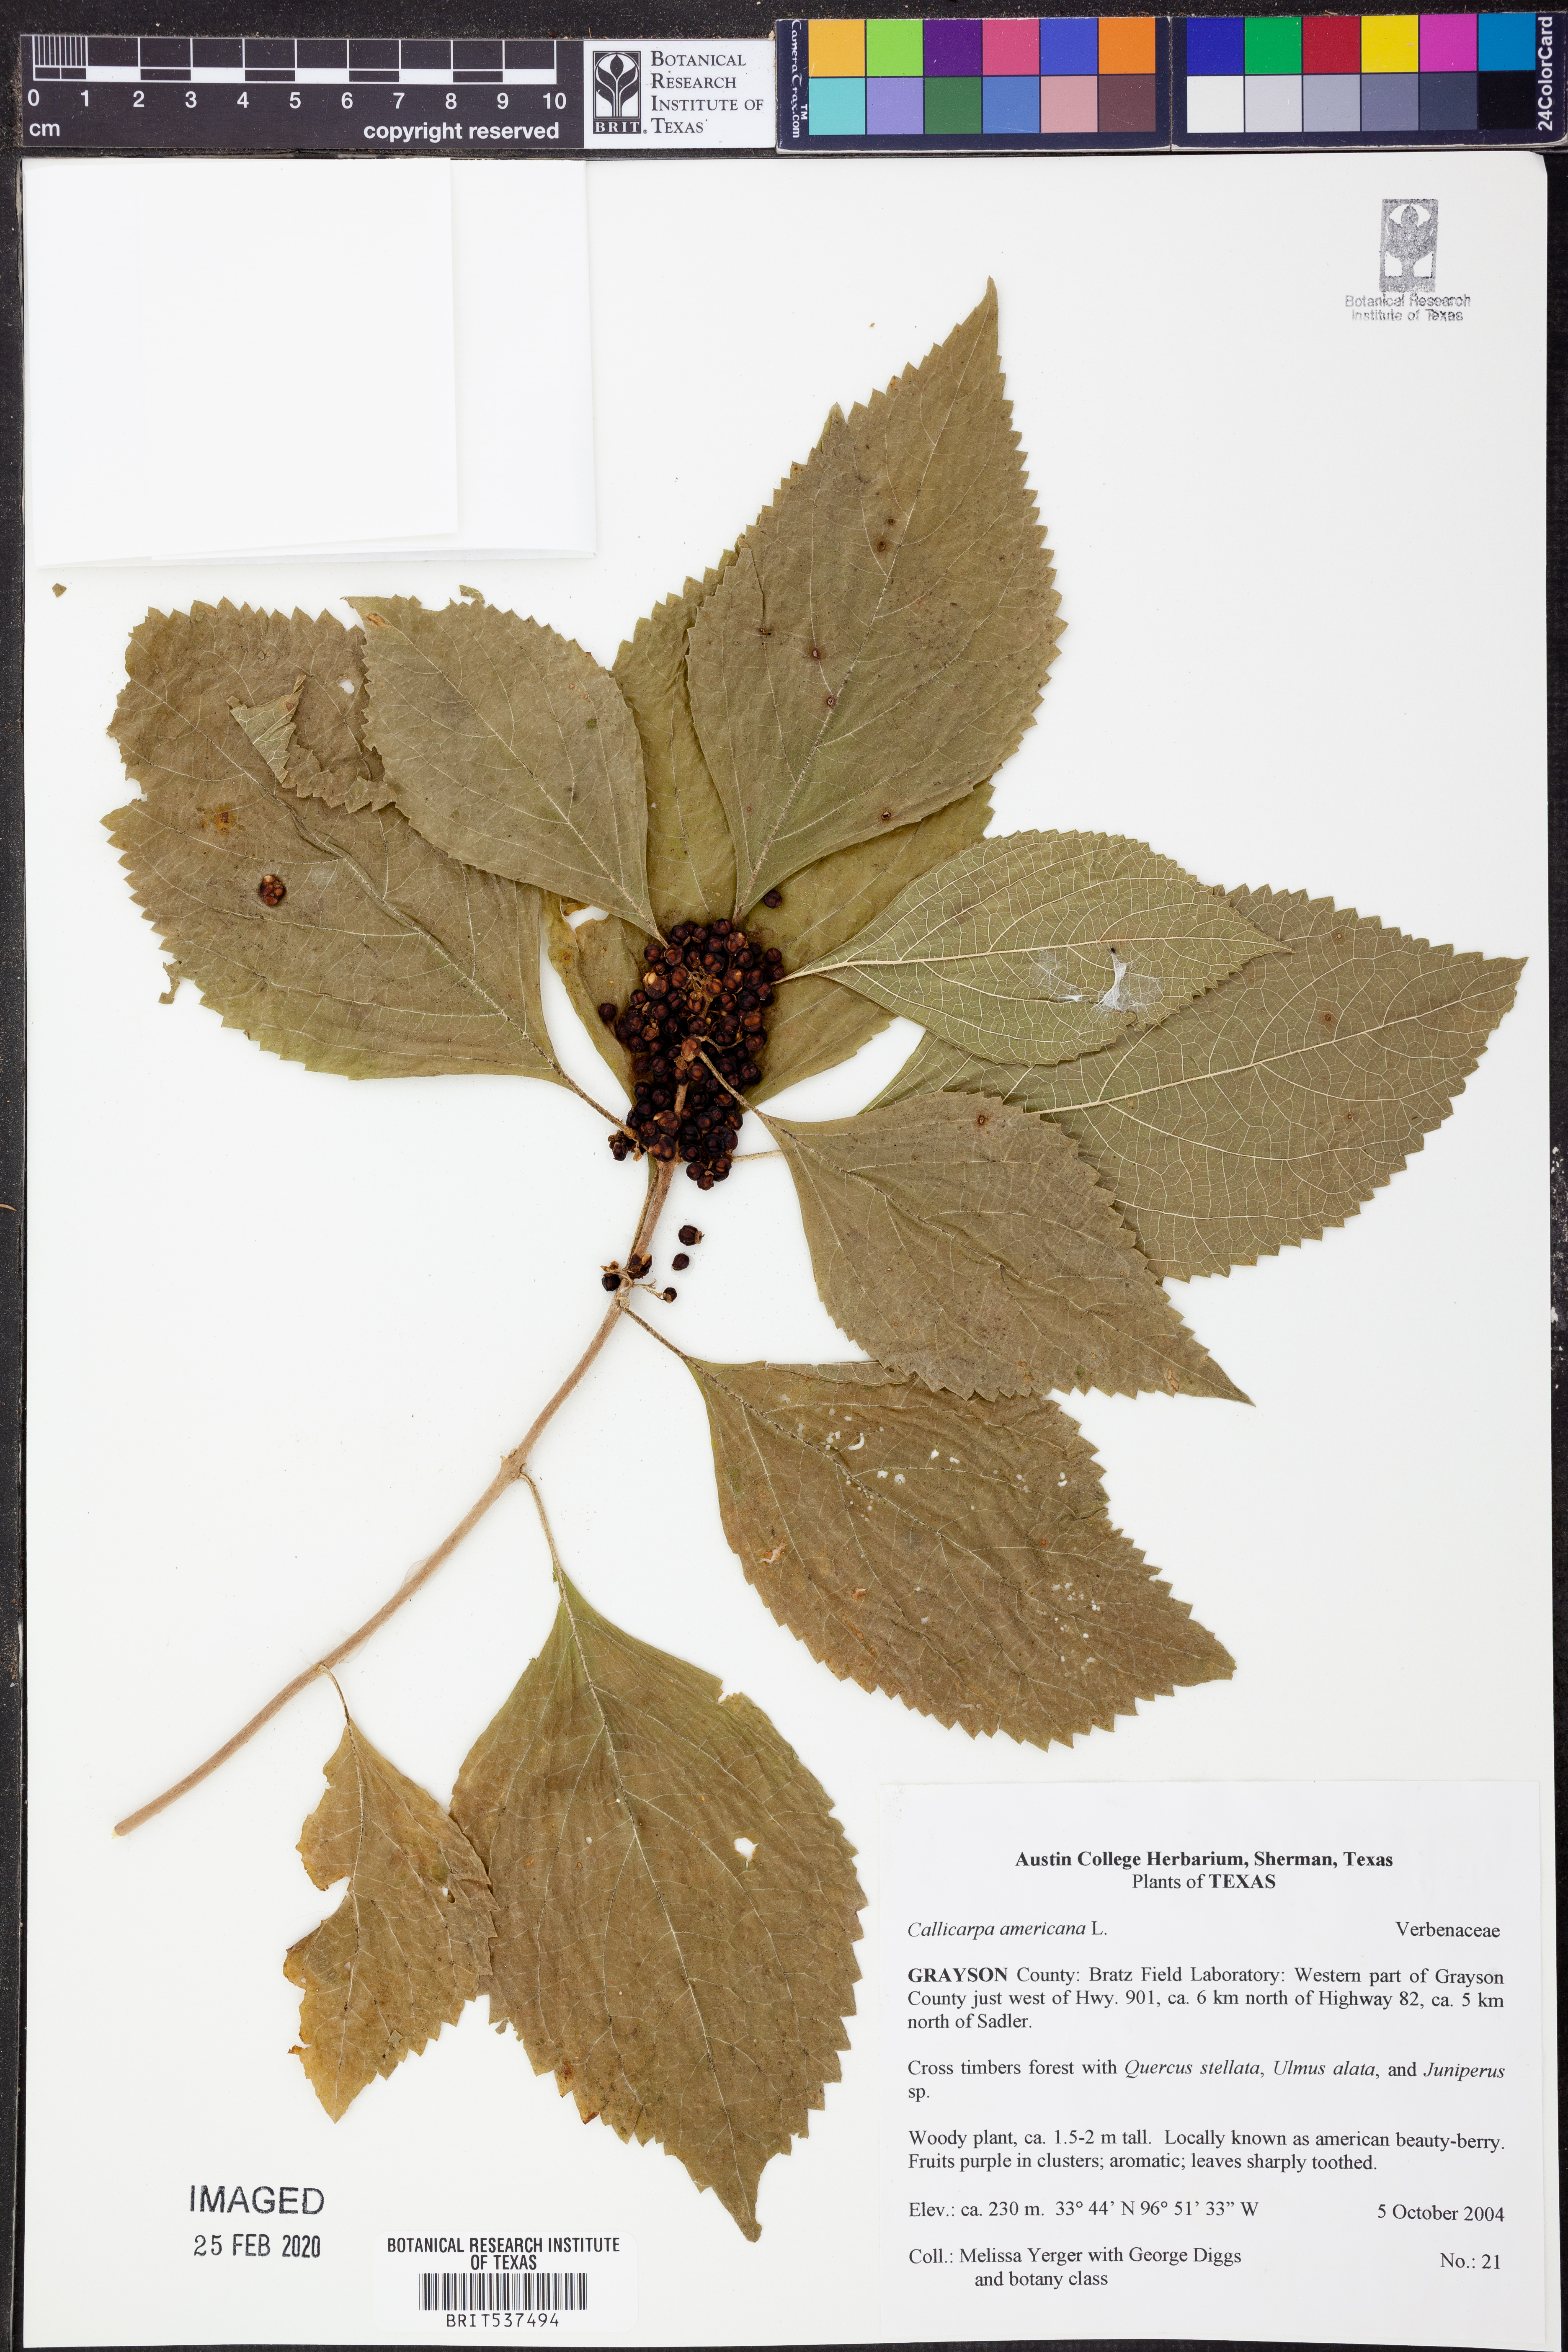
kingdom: Plantae
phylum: Tracheophyta
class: Magnoliopsida
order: Lamiales
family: Lamiaceae
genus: Callicarpa
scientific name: Callicarpa americana
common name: American beautyberry
